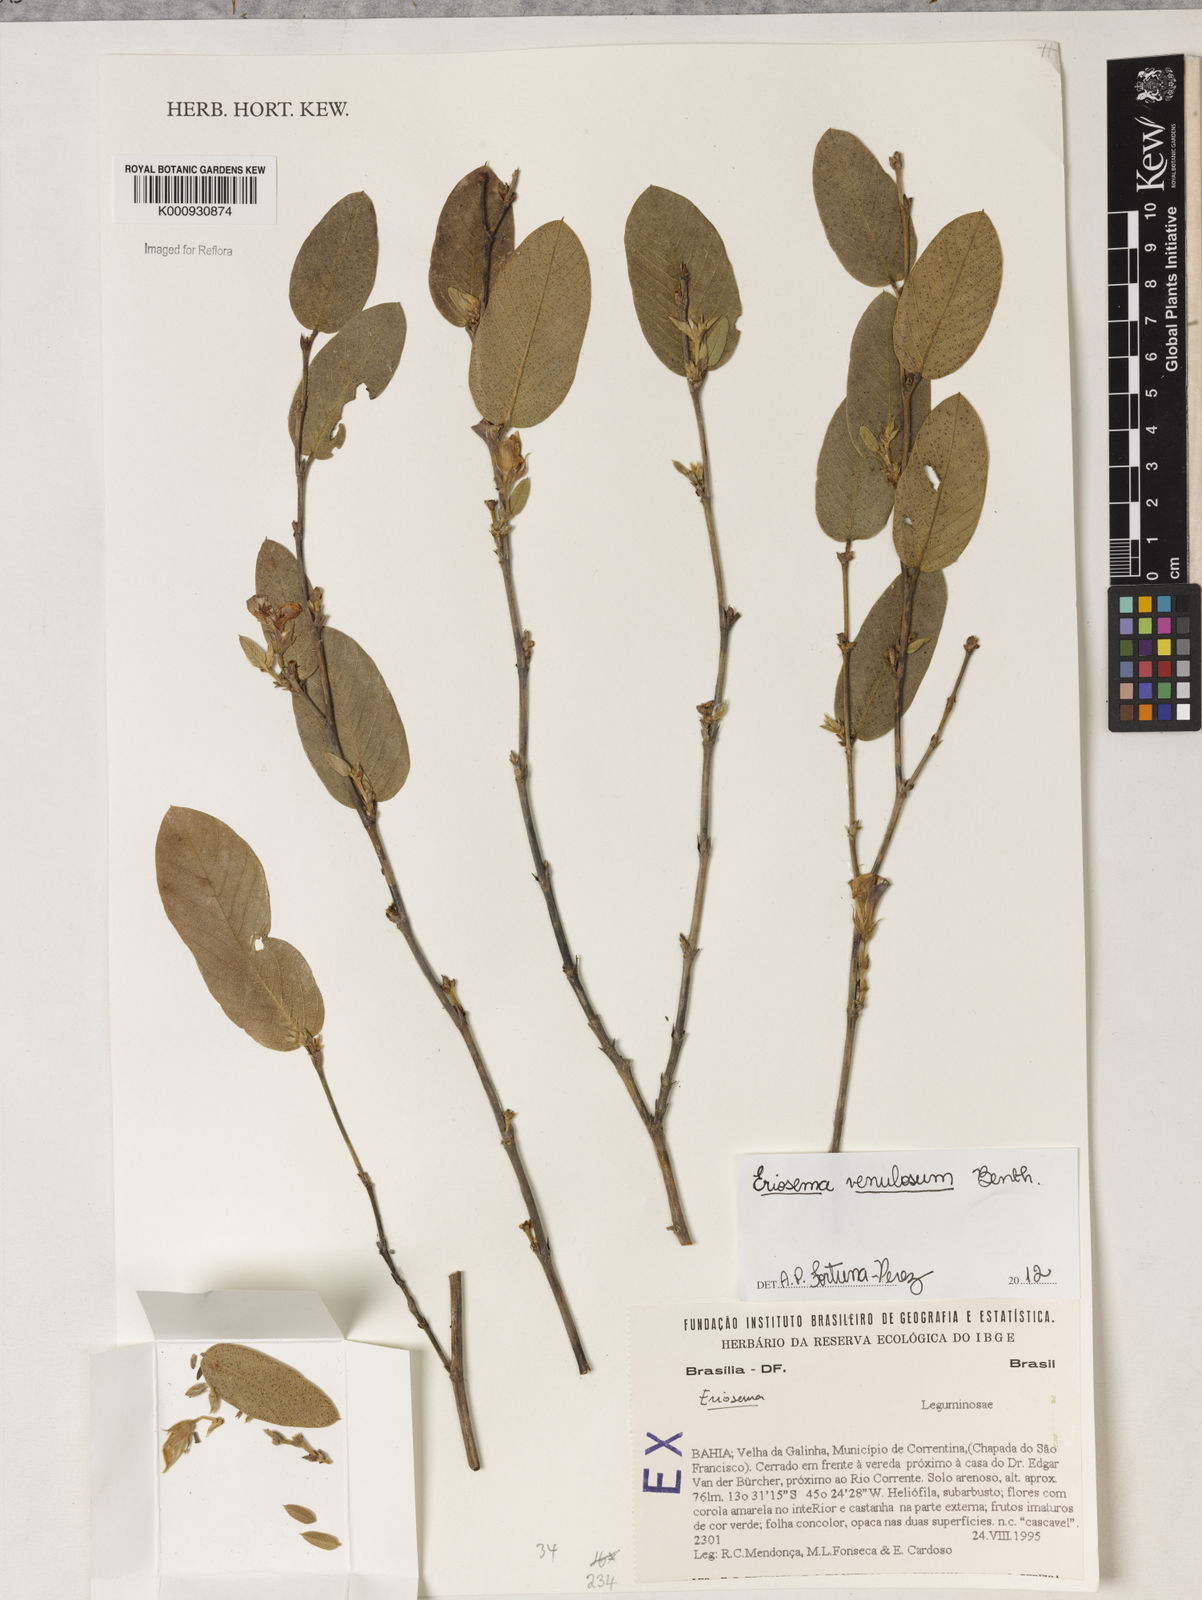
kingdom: Plantae
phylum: Tracheophyta
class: Magnoliopsida
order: Fabales
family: Fabaceae
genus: Eriosema
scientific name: Eriosema venulosum
